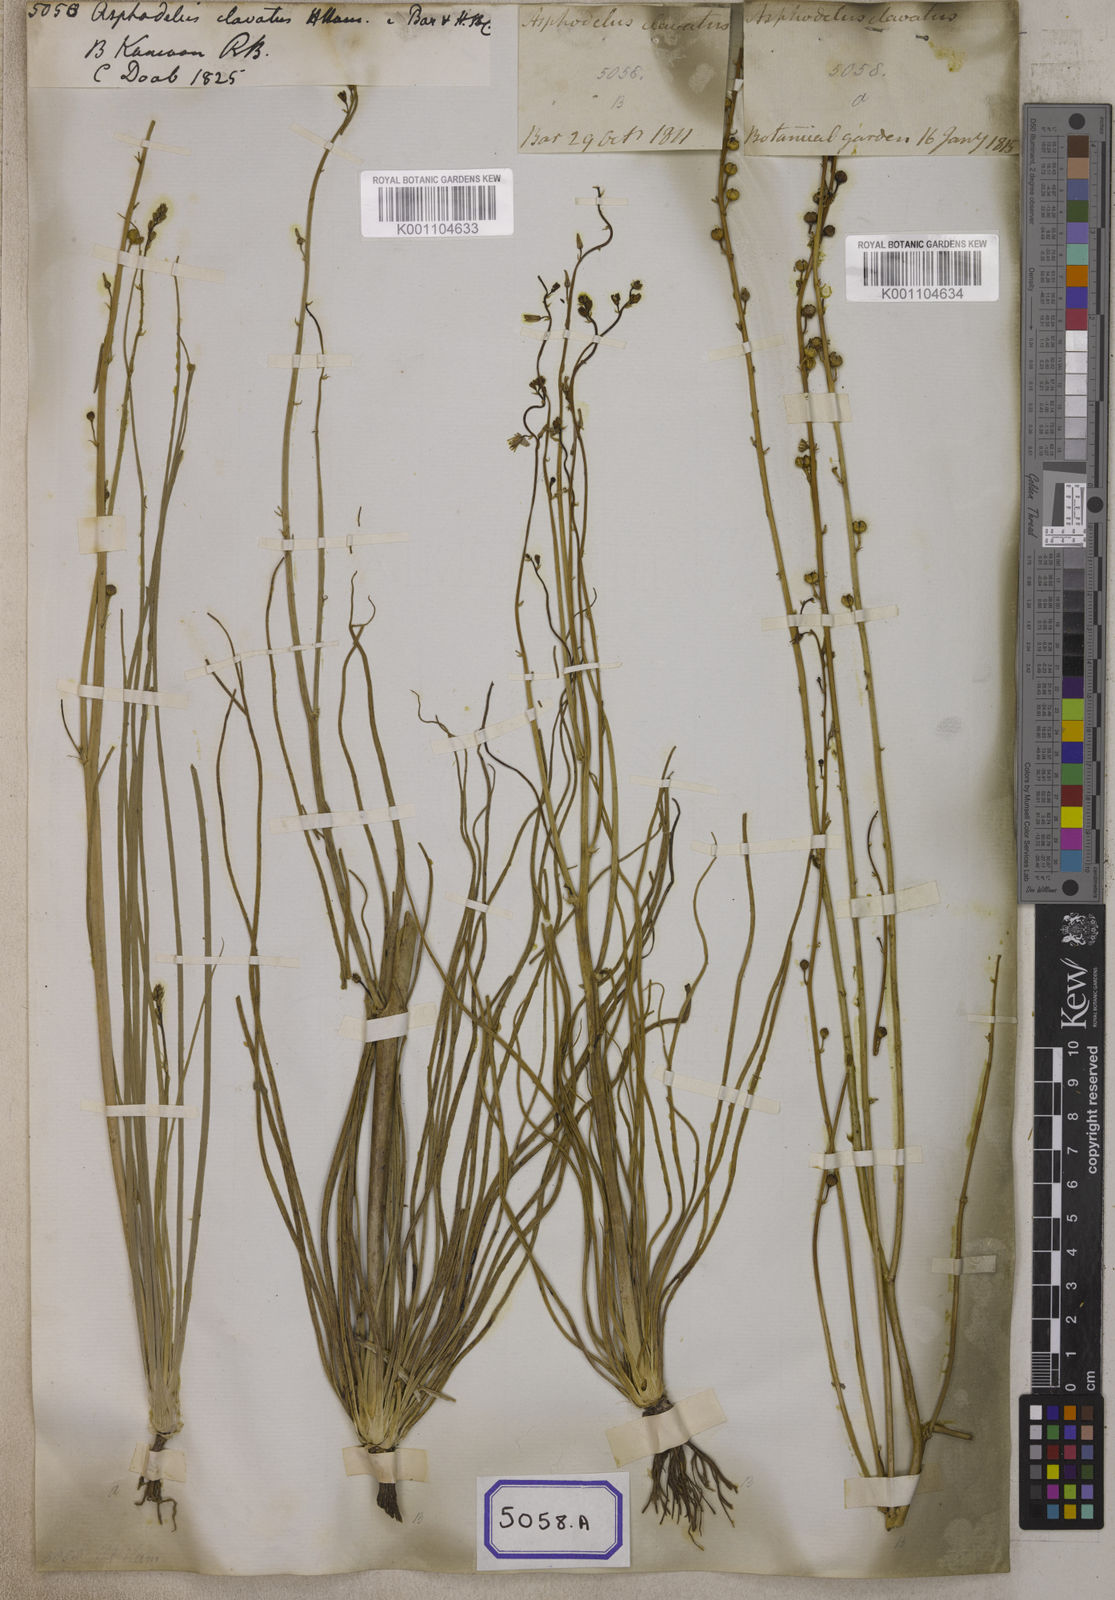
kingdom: Plantae
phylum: Tracheophyta
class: Liliopsida
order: Asparagales
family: Asphodelaceae
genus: Asphodelus
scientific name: Asphodelus
